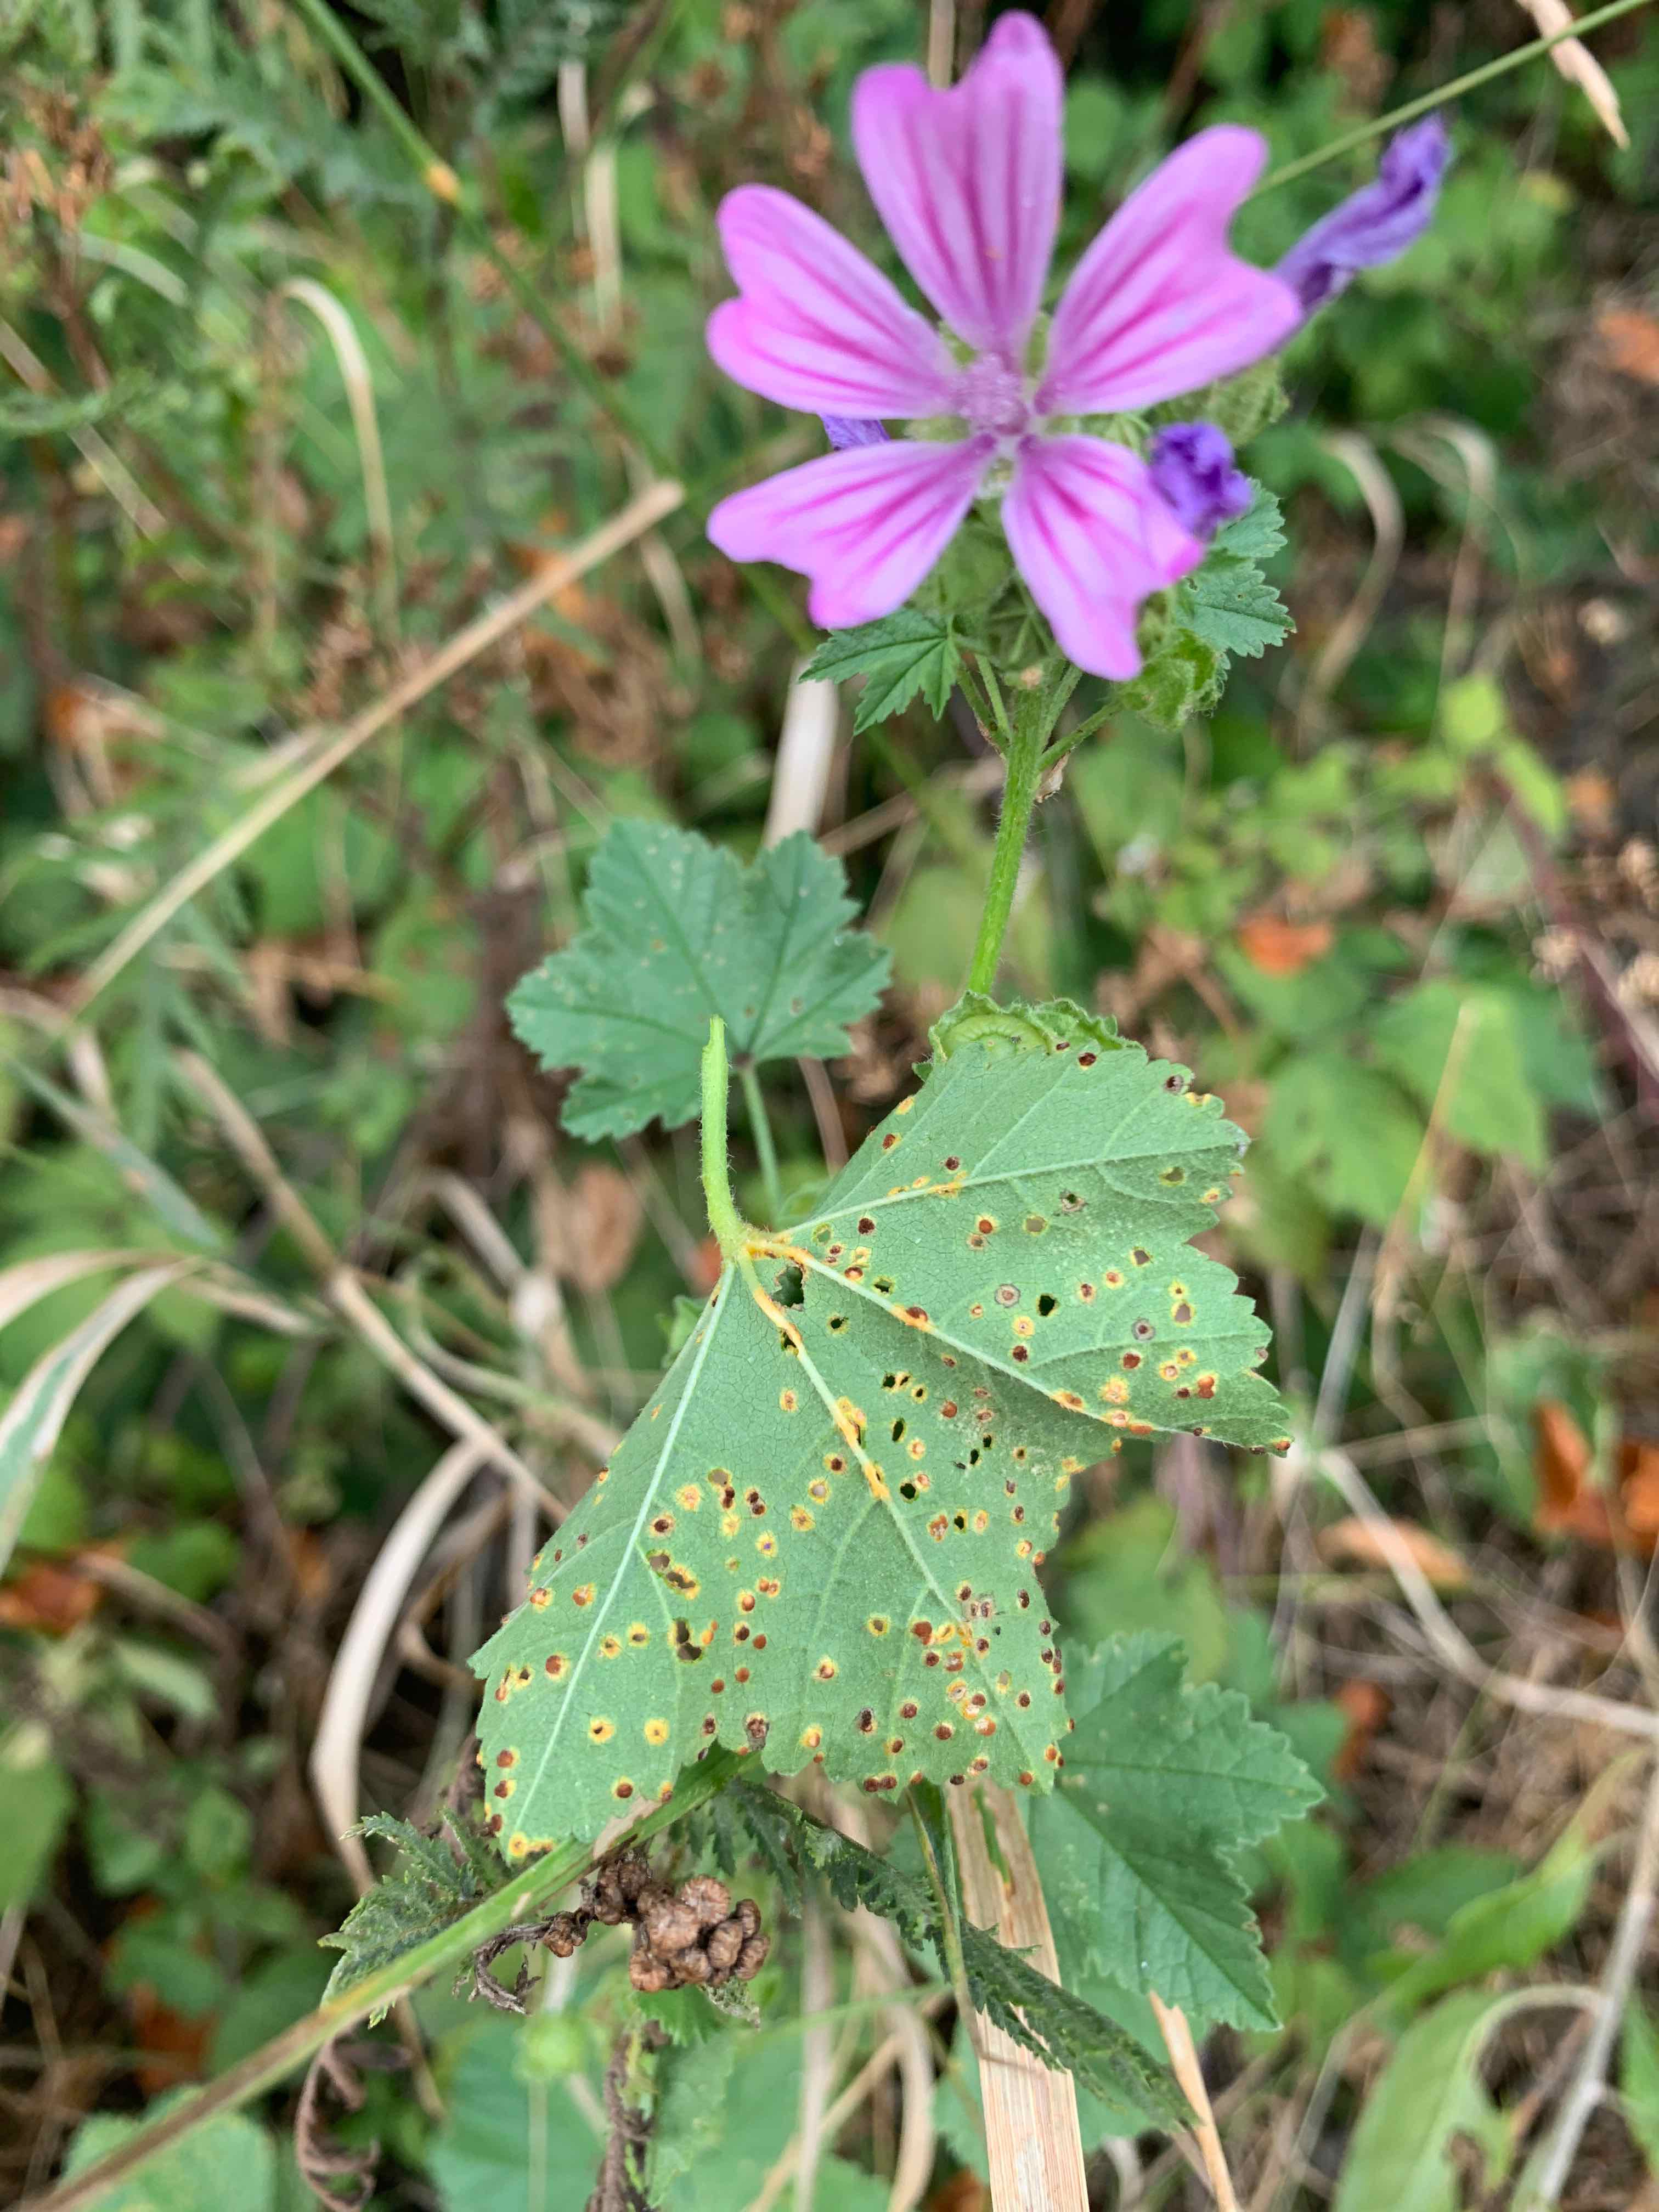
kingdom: Fungi
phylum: Basidiomycota
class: Pucciniomycetes
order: Pucciniales
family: Pucciniaceae
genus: Puccinia
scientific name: Puccinia malvacearum
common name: stokrose-tvecellerust
